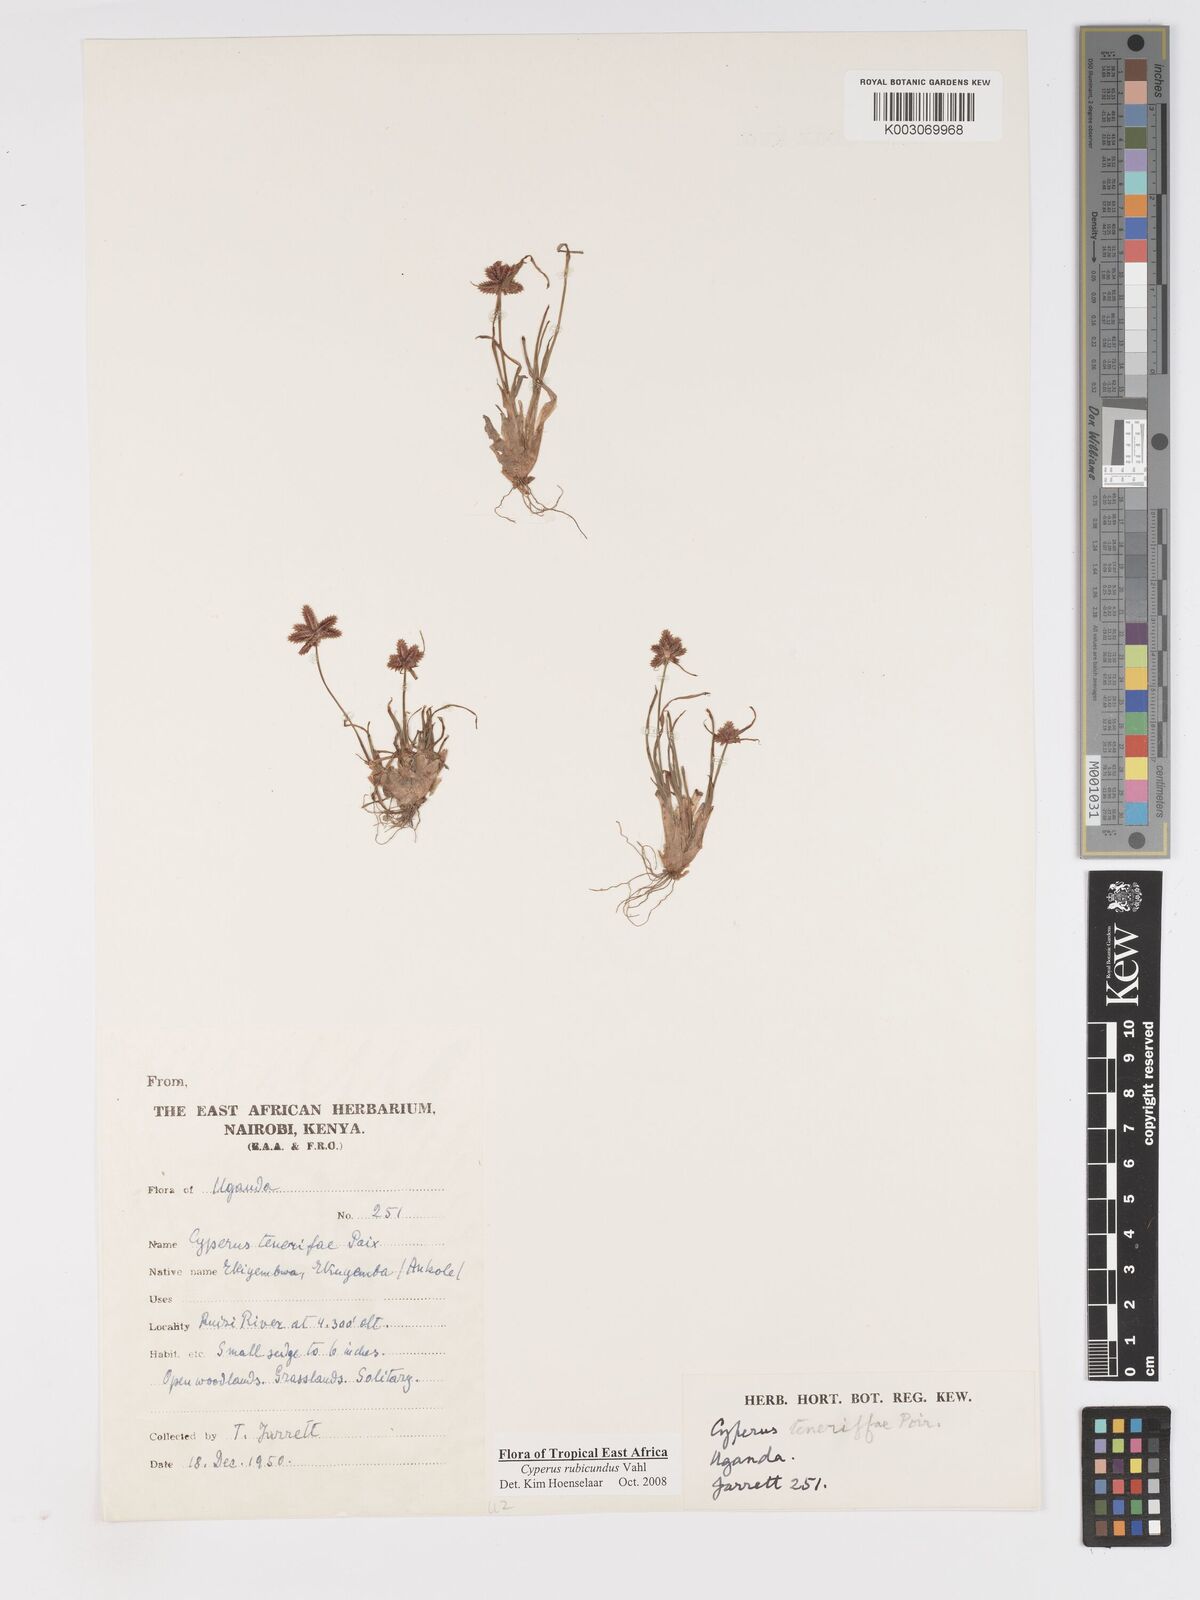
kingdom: Plantae
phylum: Tracheophyta
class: Liliopsida
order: Poales
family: Cyperaceae
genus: Cyperus
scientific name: Cyperus rubicundus
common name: Coco-grass
